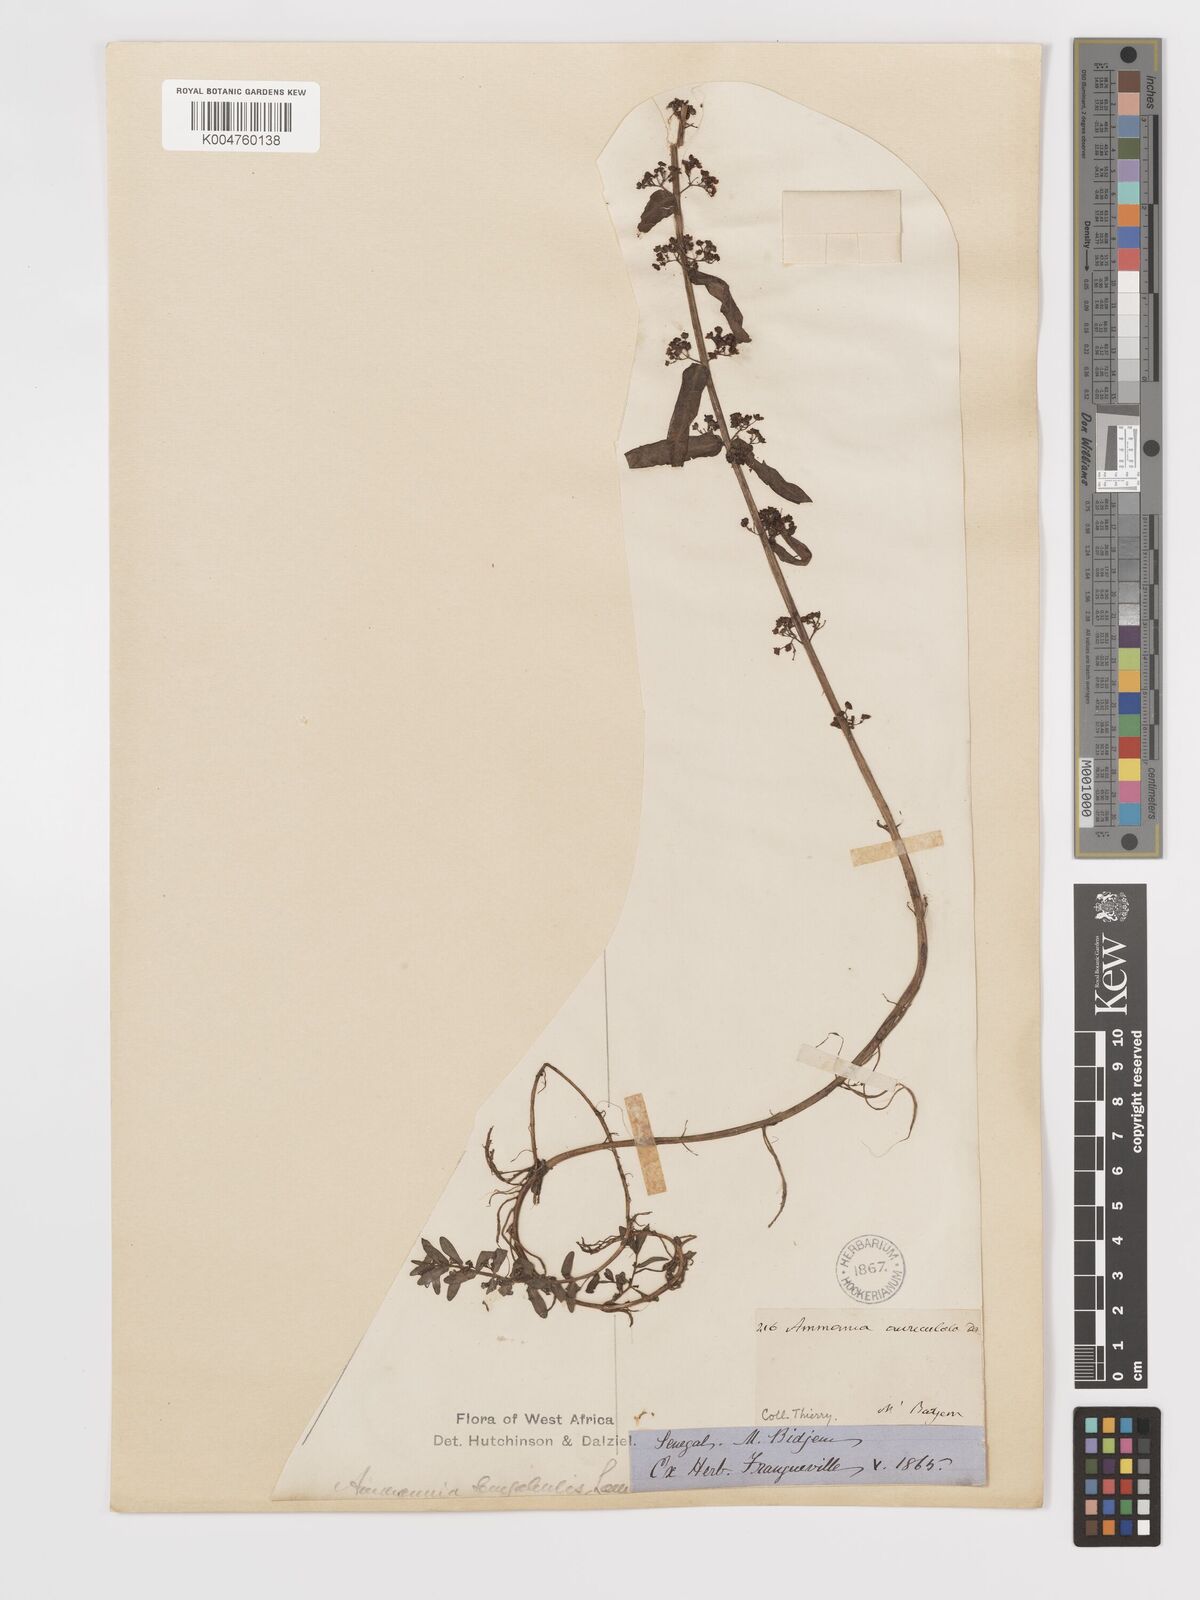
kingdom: Plantae
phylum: Tracheophyta
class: Magnoliopsida
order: Myrtales
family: Lythraceae
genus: Ammannia
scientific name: Ammannia senegalensis
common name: Red ammannia
